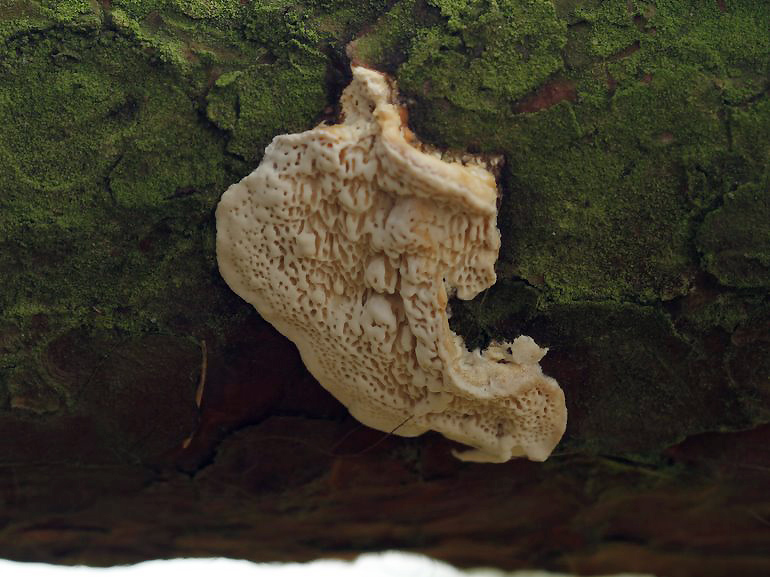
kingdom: Fungi
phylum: Basidiomycota
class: Agaricomycetes
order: Polyporales
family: Fomitopsidaceae
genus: Fomitopsis
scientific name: Fomitopsis
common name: fyrre-skiveporesvamp
